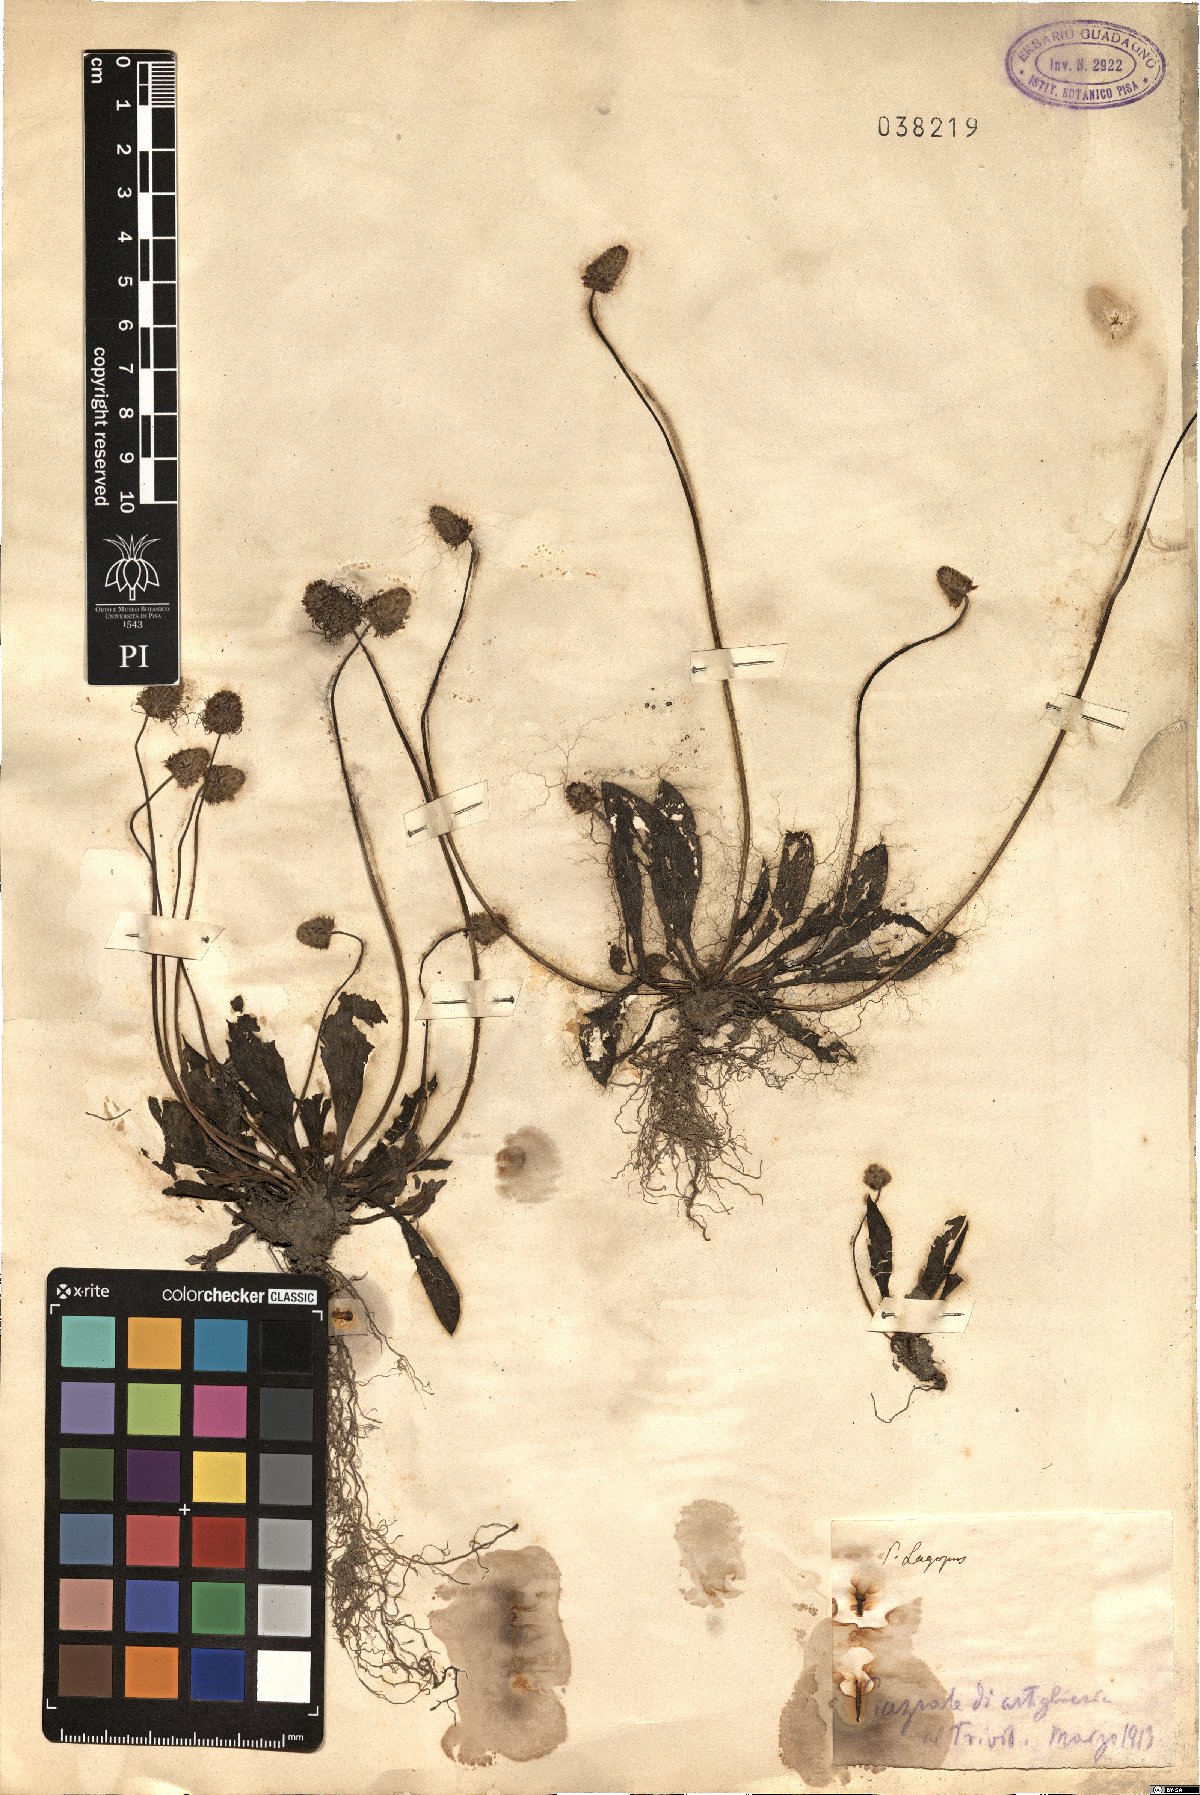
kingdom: Plantae
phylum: Tracheophyta
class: Magnoliopsida
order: Lamiales
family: Plantaginaceae
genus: Plantago
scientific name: Plantago lagopus
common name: Hare-foot plantain
